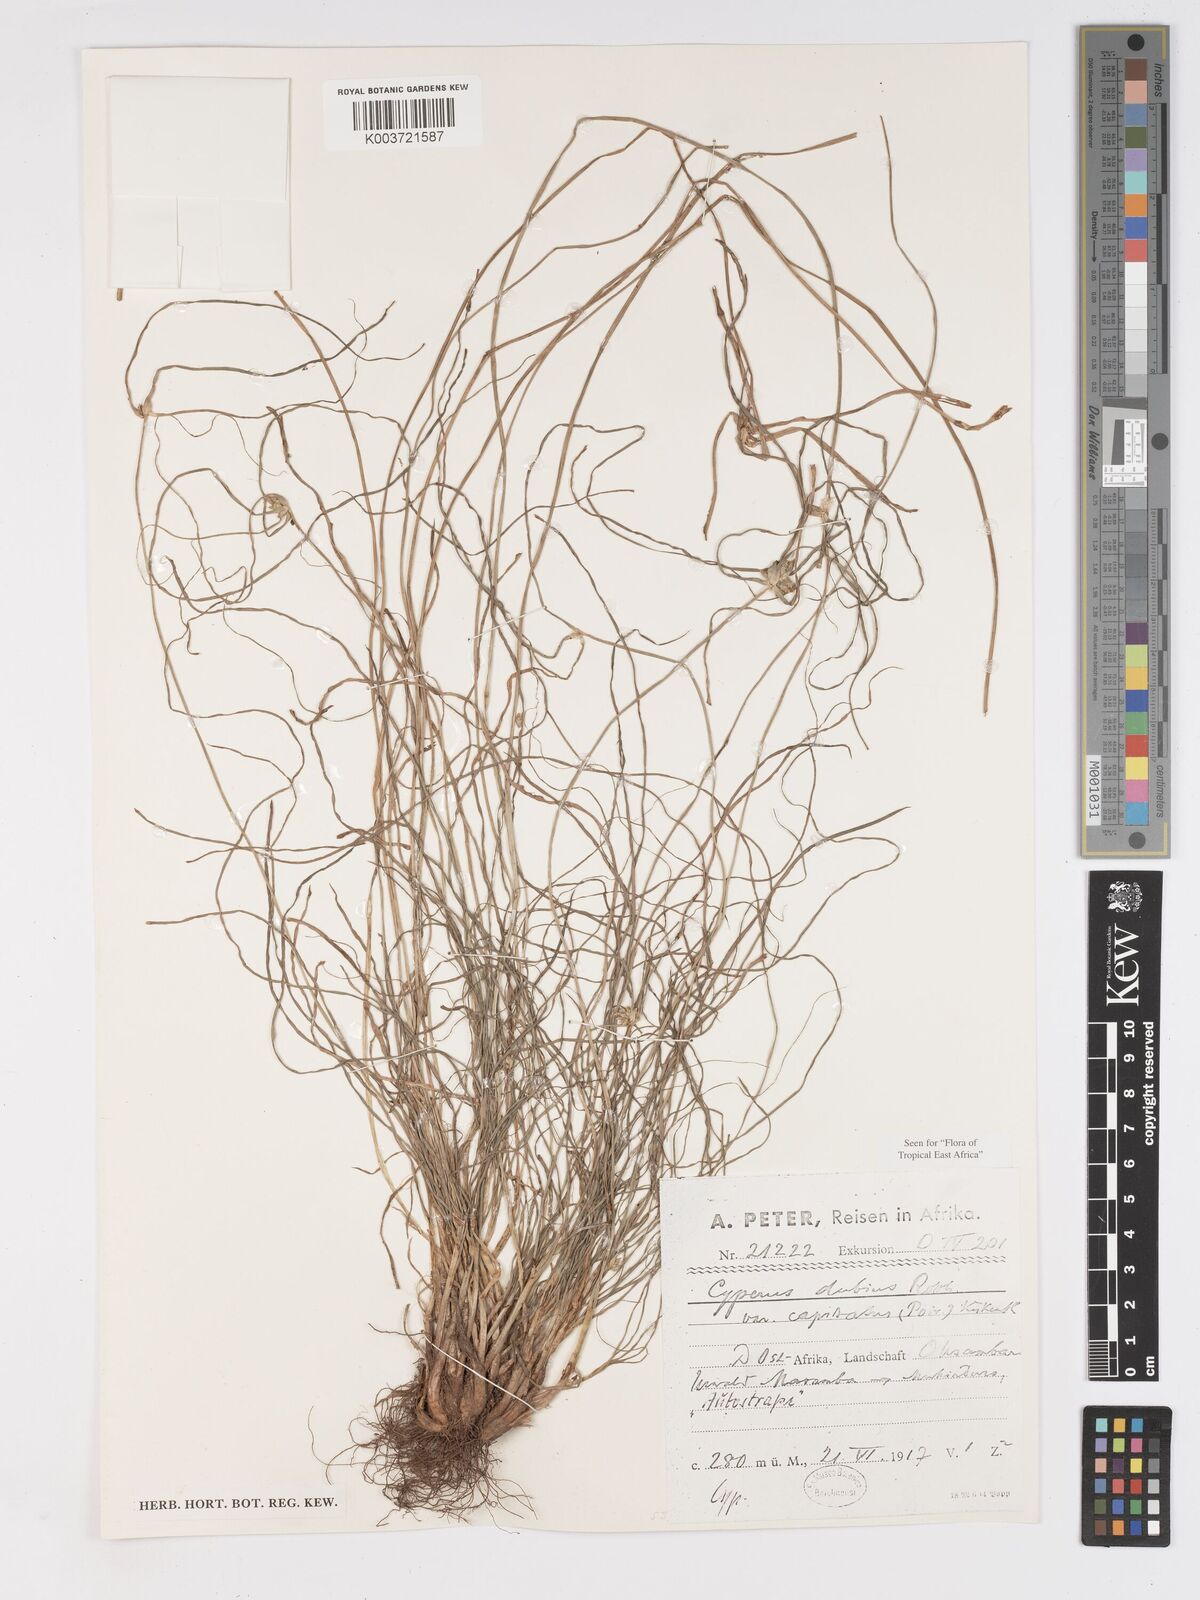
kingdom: Plantae
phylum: Tracheophyta
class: Liliopsida
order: Poales
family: Cyperaceae
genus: Cyperus
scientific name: Cyperus dubius
